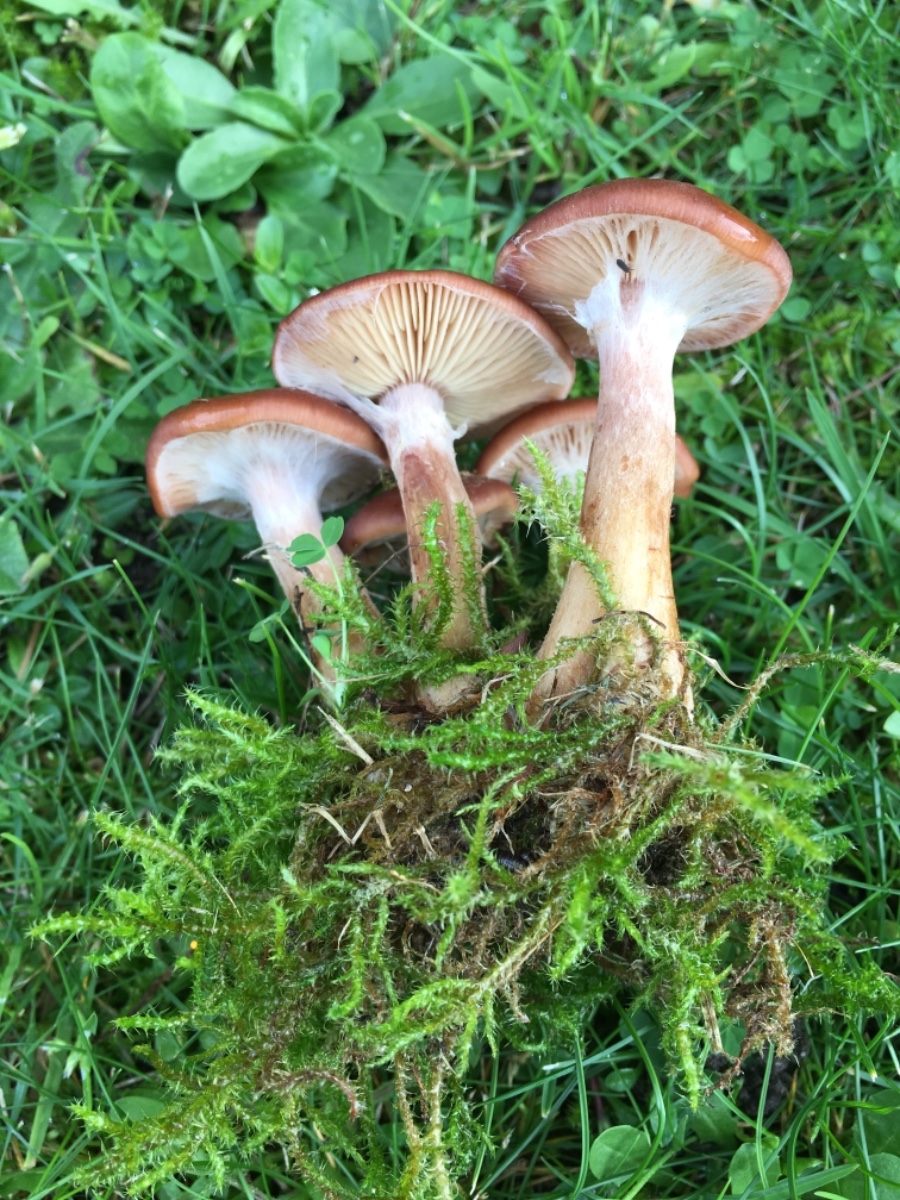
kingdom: Fungi
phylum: Basidiomycota
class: Agaricomycetes
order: Agaricales
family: Physalacriaceae
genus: Armillaria
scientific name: Armillaria lutea
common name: køllestokket honningsvamp
